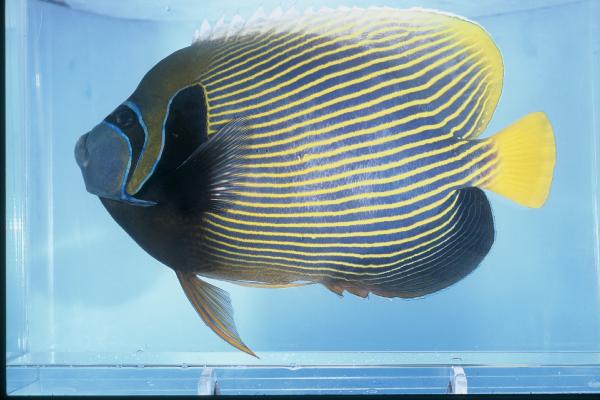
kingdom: Animalia
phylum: Chordata
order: Perciformes
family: Pomacanthidae
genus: Pomacanthus
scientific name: Pomacanthus imperator
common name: Emperor angelfish
